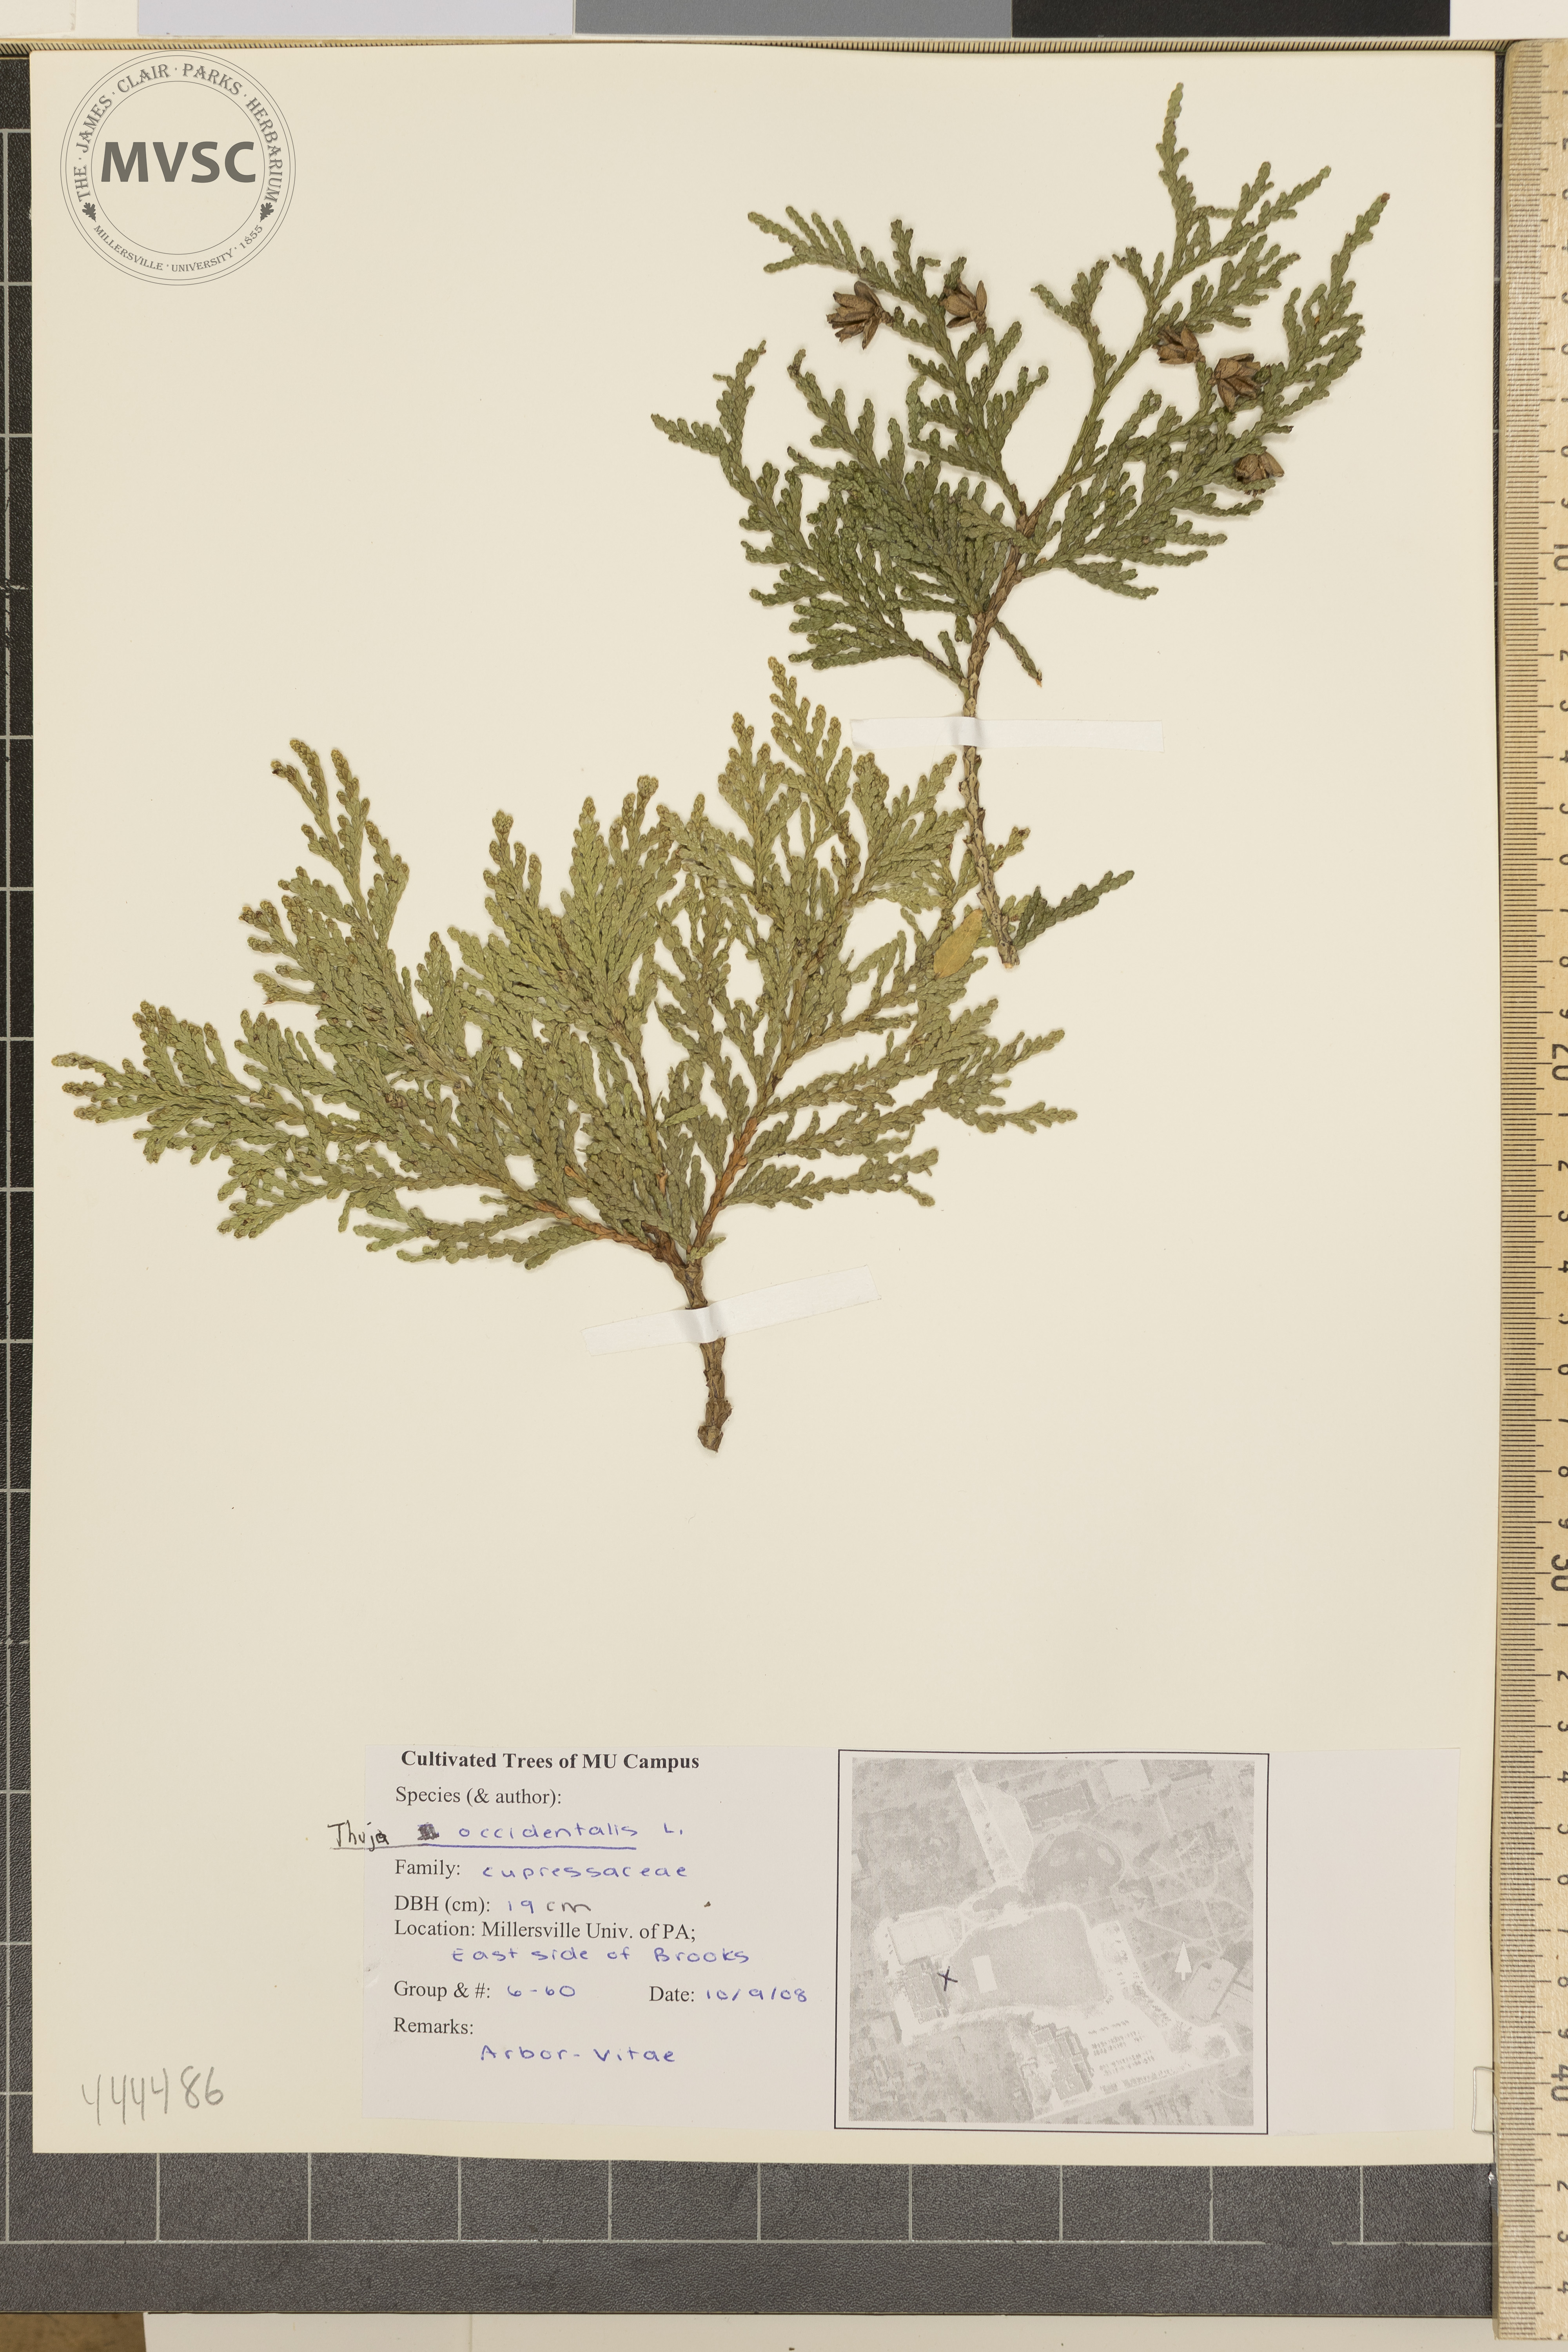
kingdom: Plantae
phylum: Tracheophyta
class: Pinopsida
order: Pinales
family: Cupressaceae
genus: Thuja
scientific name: Thuja occidentalis
